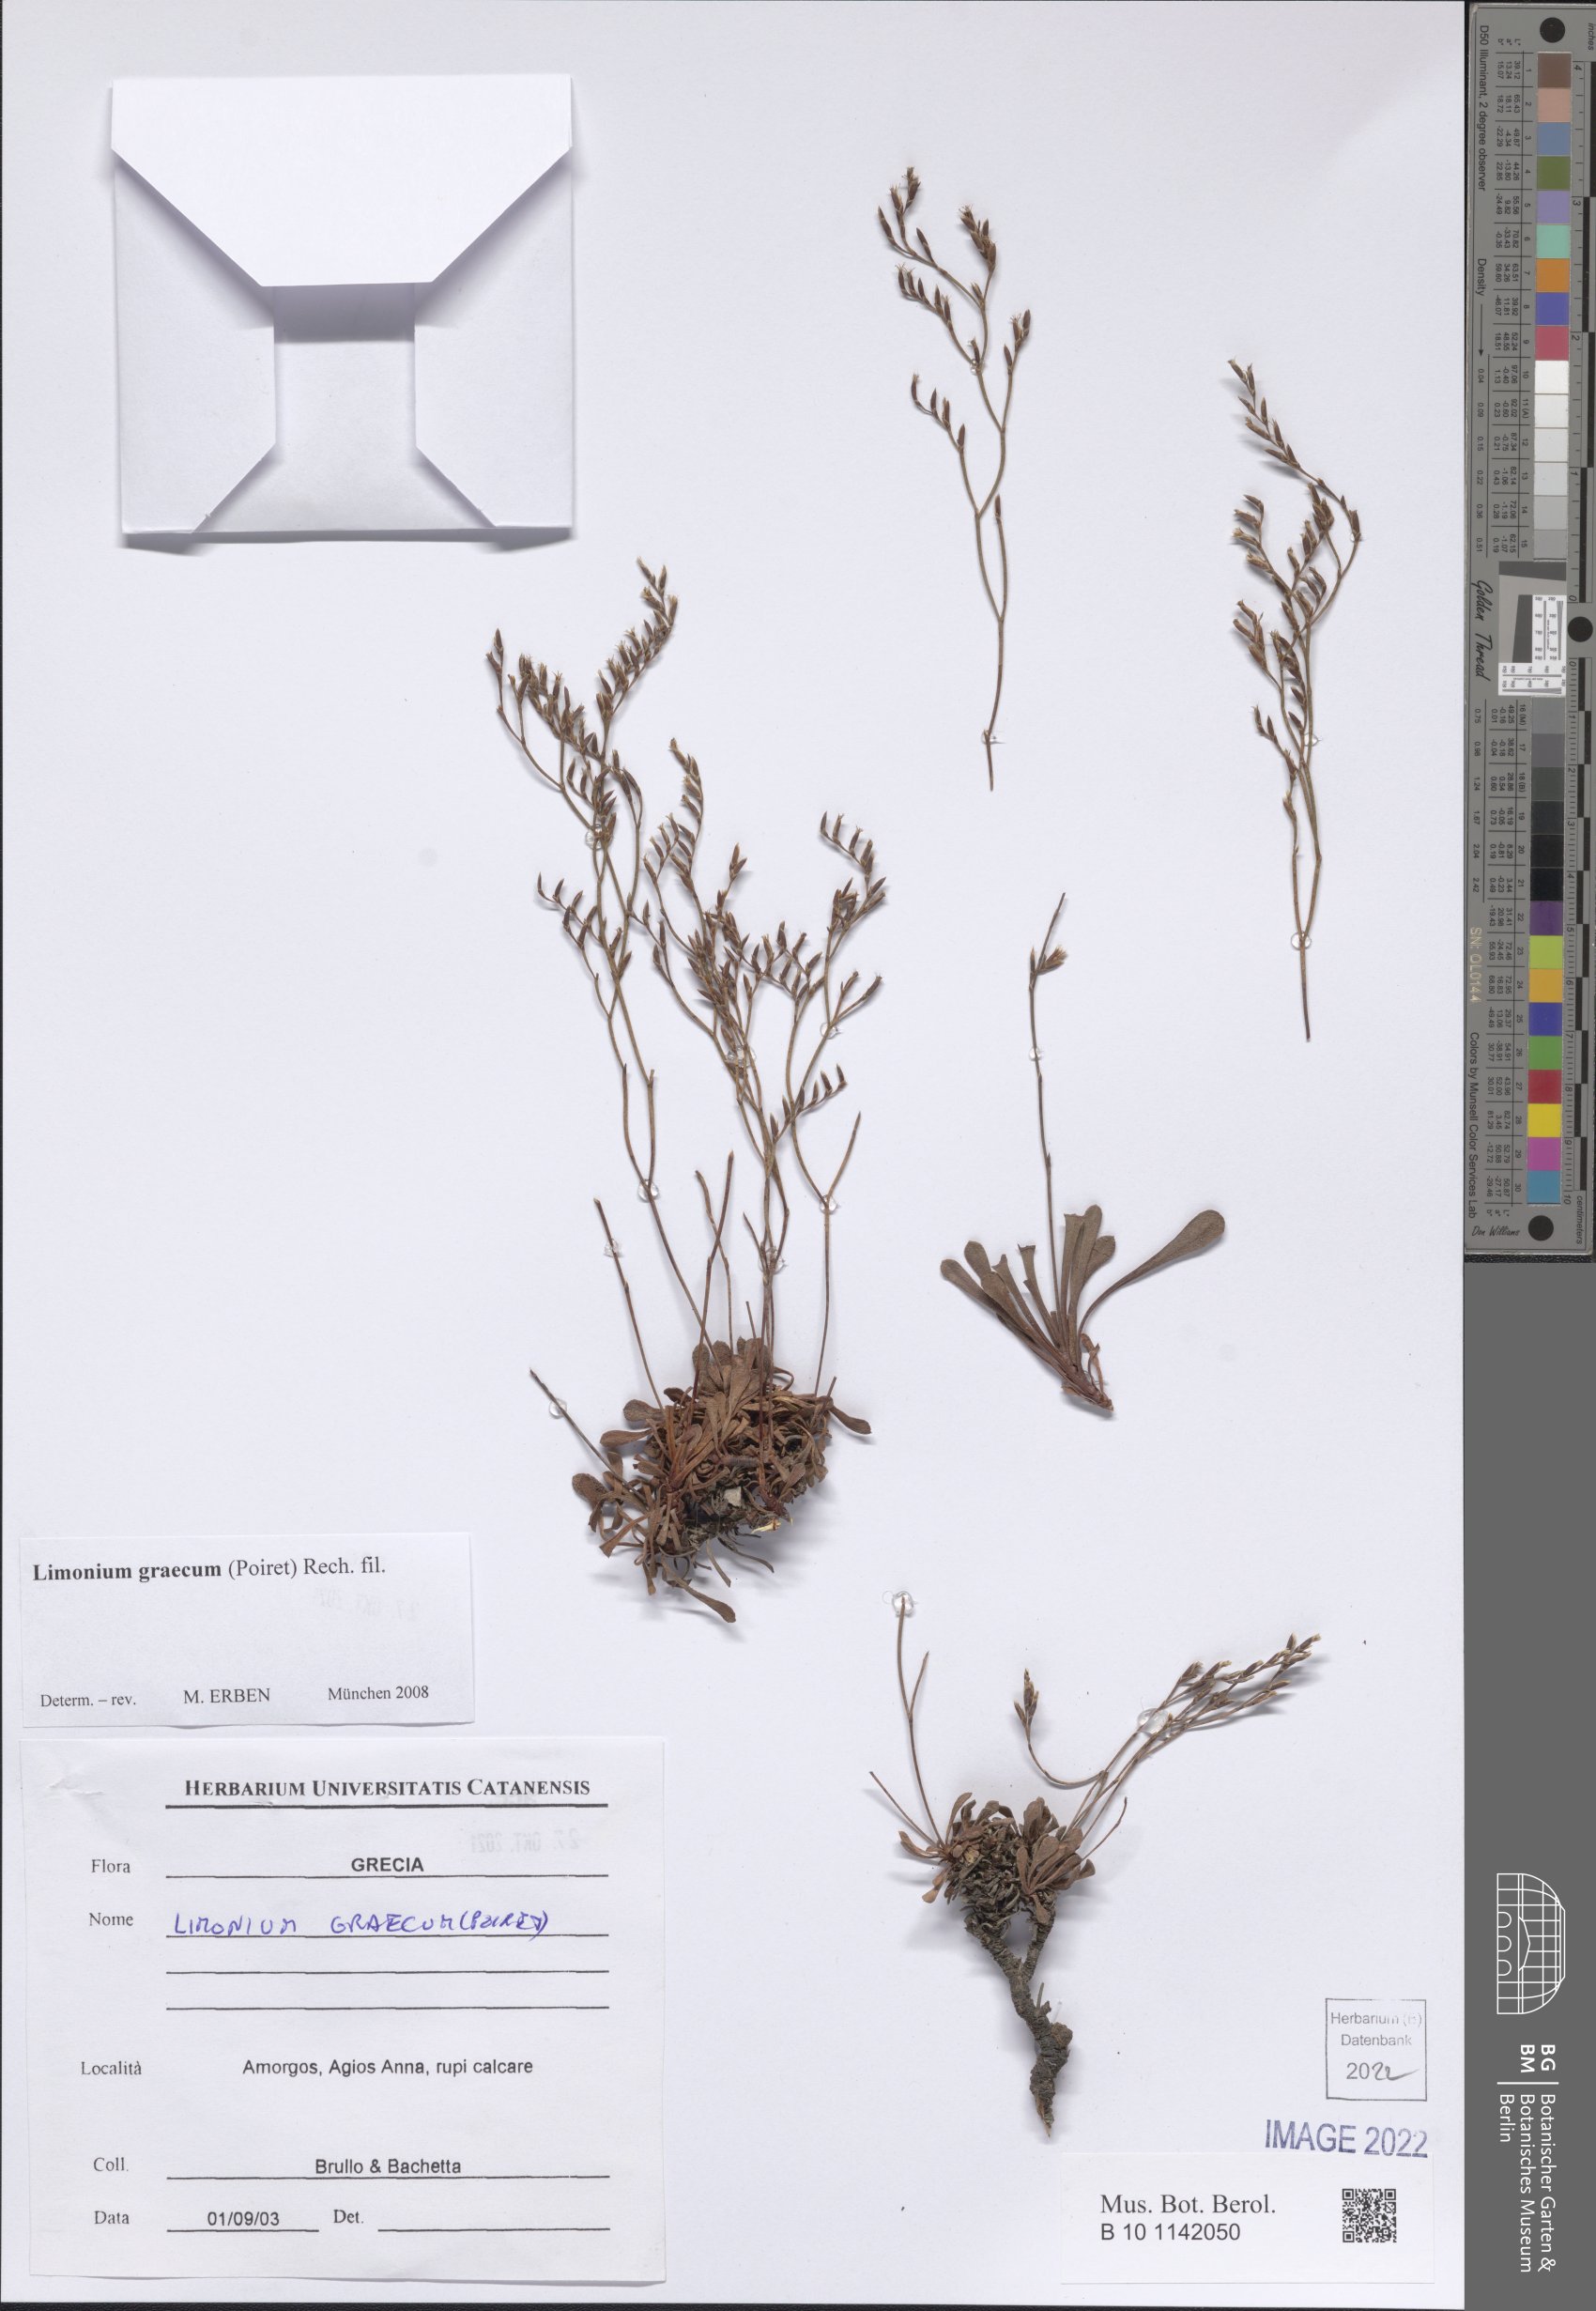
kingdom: Plantae
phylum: Tracheophyta
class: Magnoliopsida
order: Caryophyllales
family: Plumbaginaceae
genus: Limonium
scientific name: Limonium graecum
